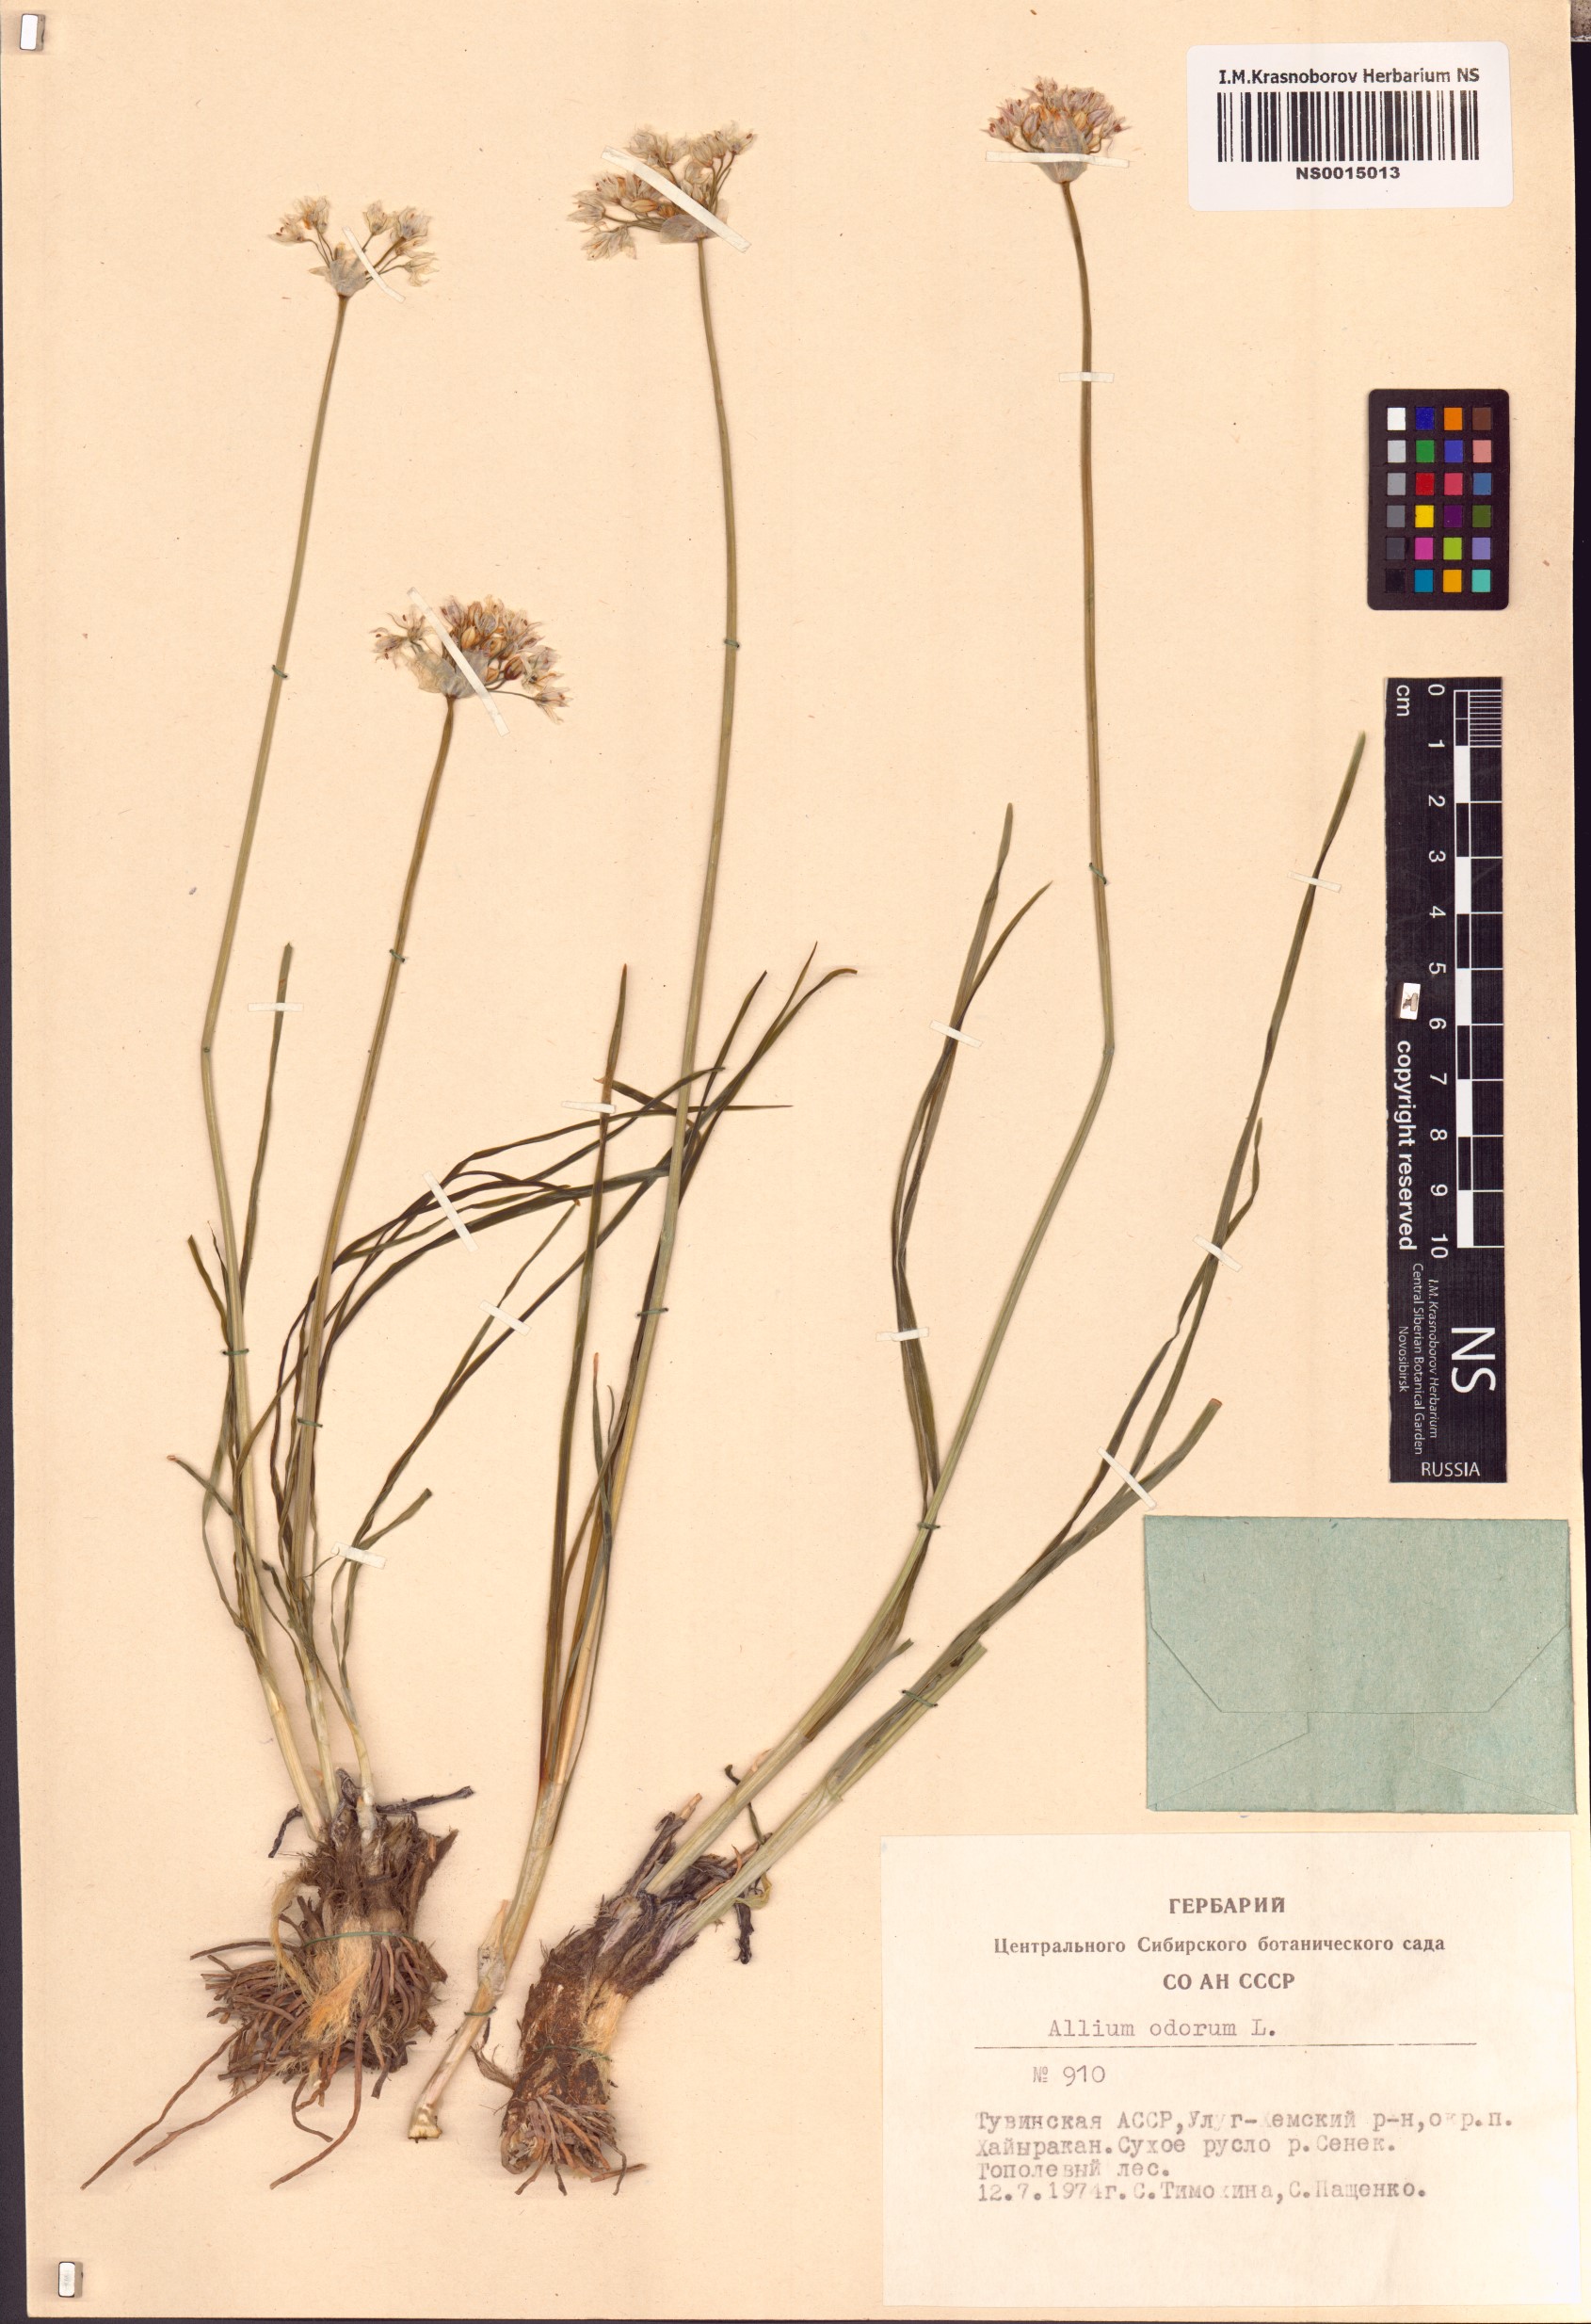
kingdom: Plantae
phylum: Tracheophyta
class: Liliopsida
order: Asparagales
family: Amaryllidaceae
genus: Allium
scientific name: Allium ramosum
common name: Fragrant garlic
